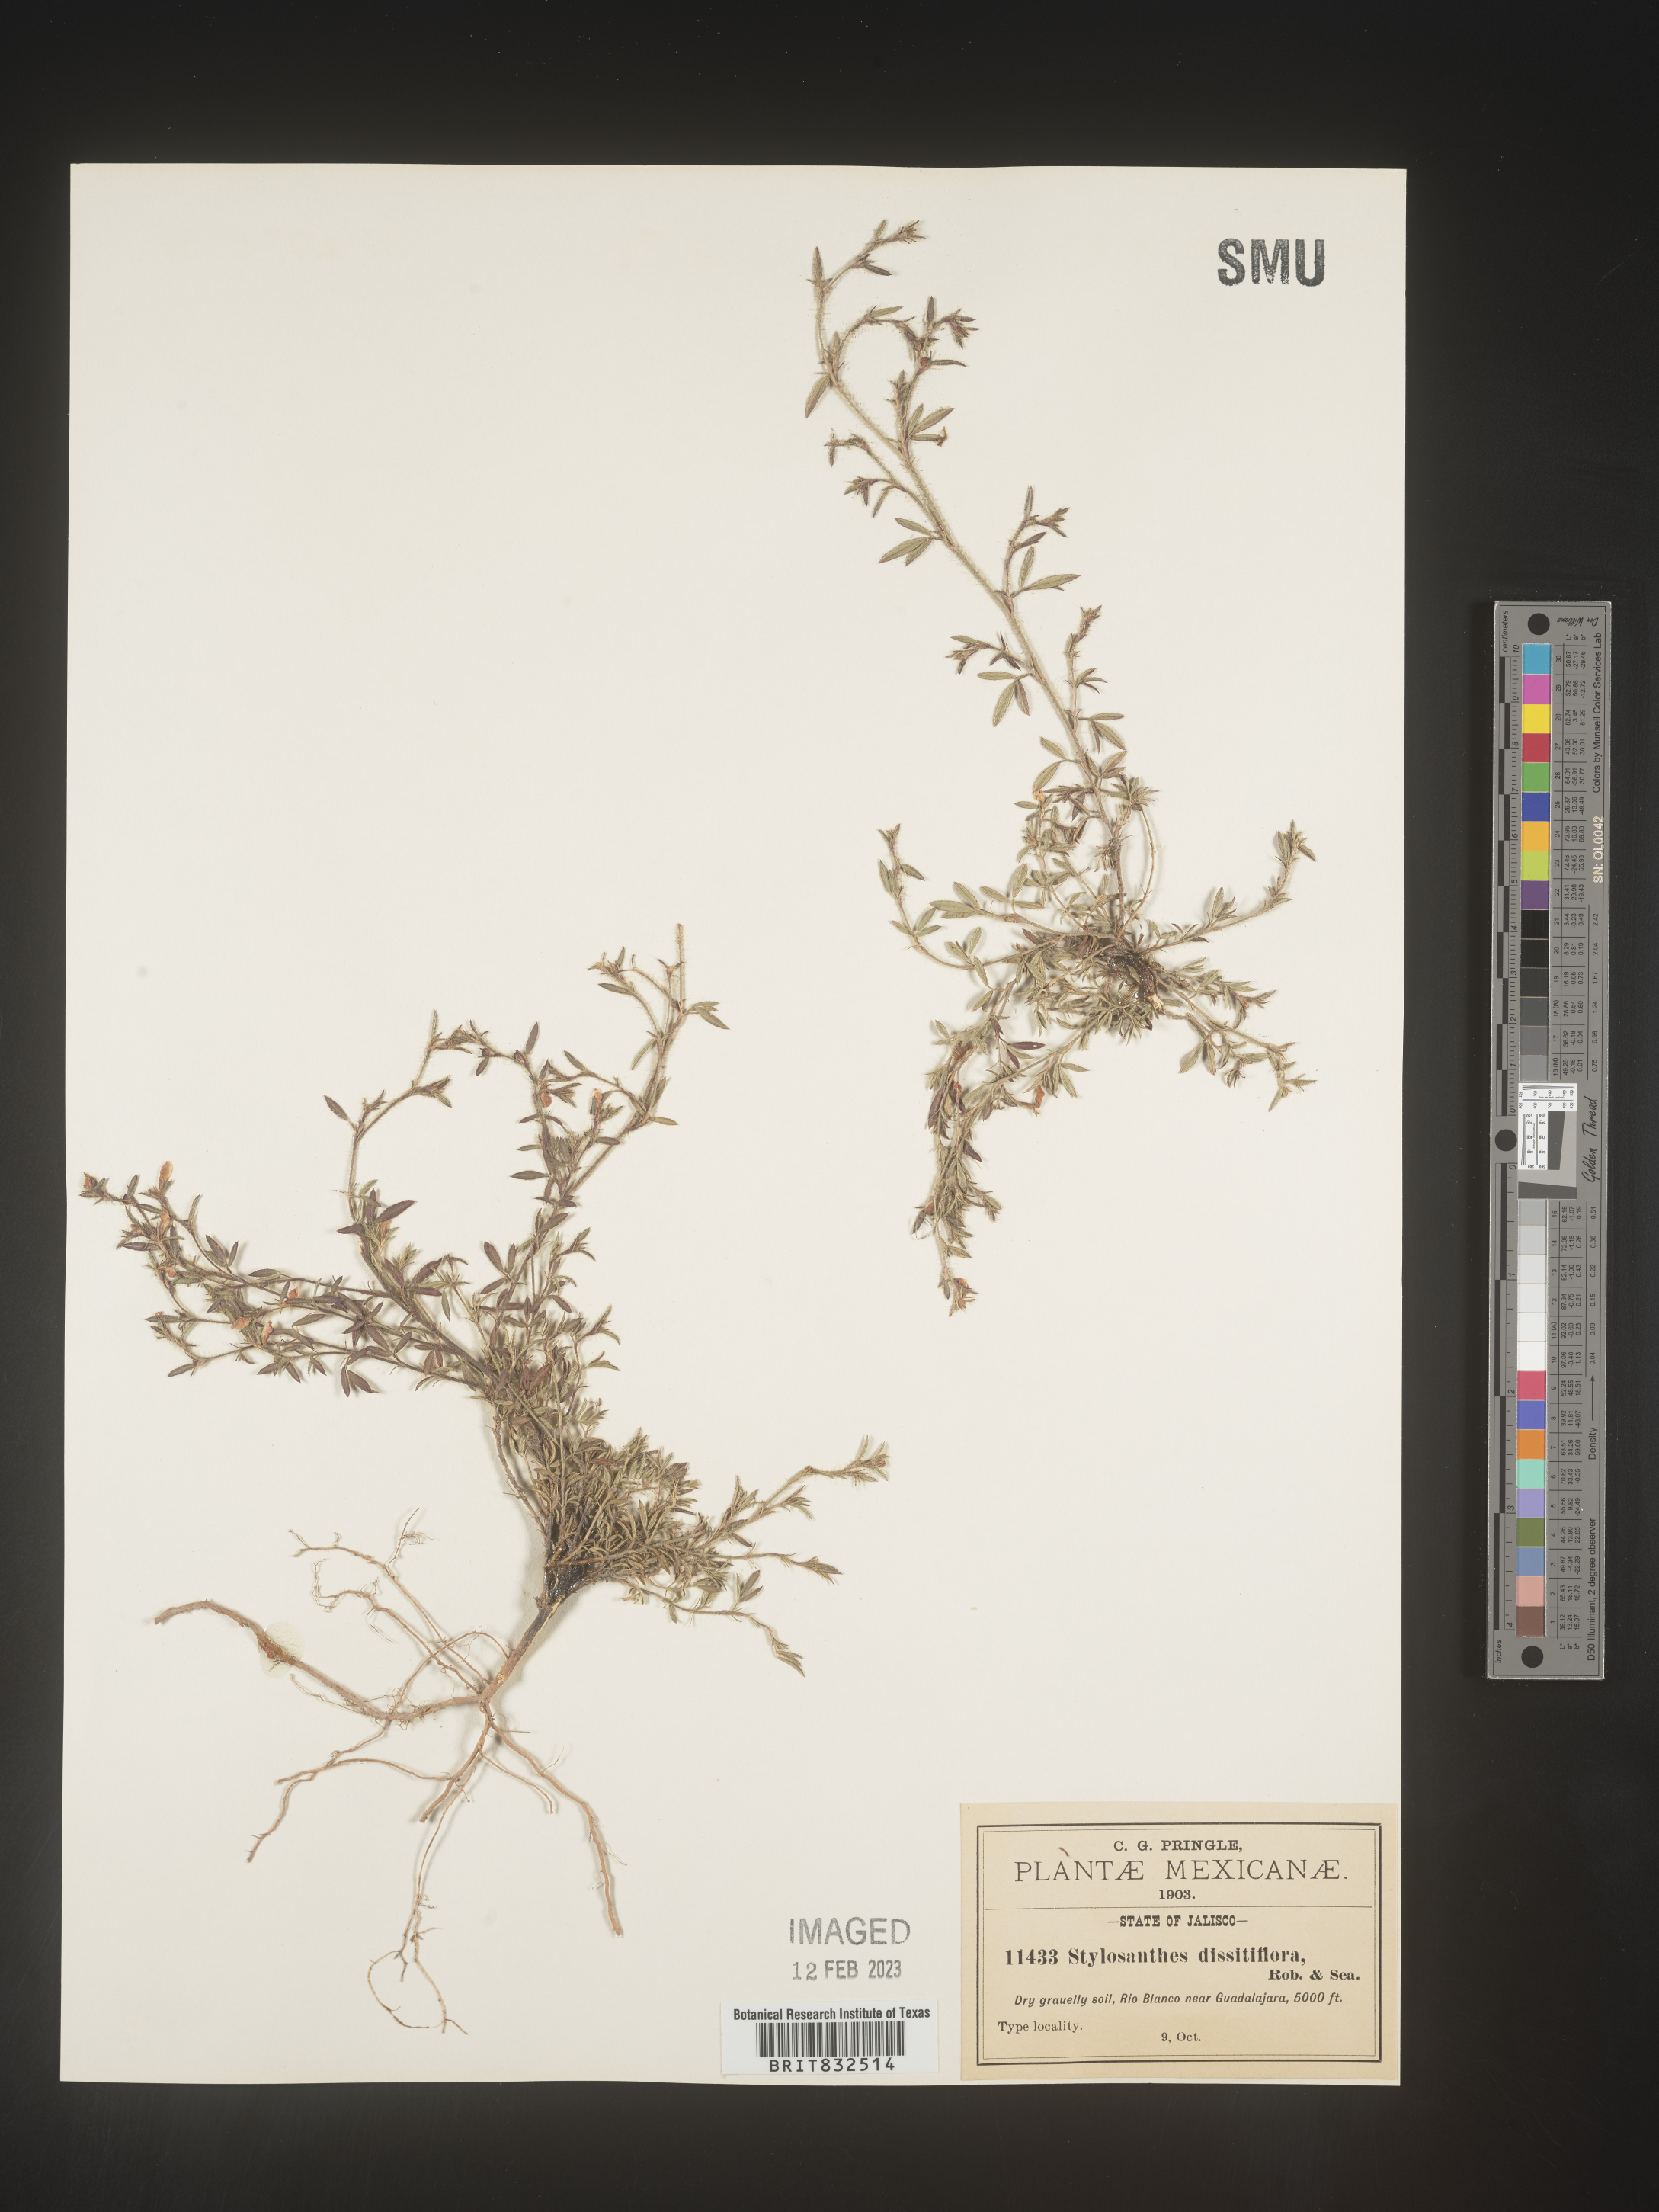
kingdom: Plantae
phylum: Tracheophyta
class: Magnoliopsida
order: Fabales
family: Fabaceae
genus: Stylosanthes
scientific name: Stylosanthes
